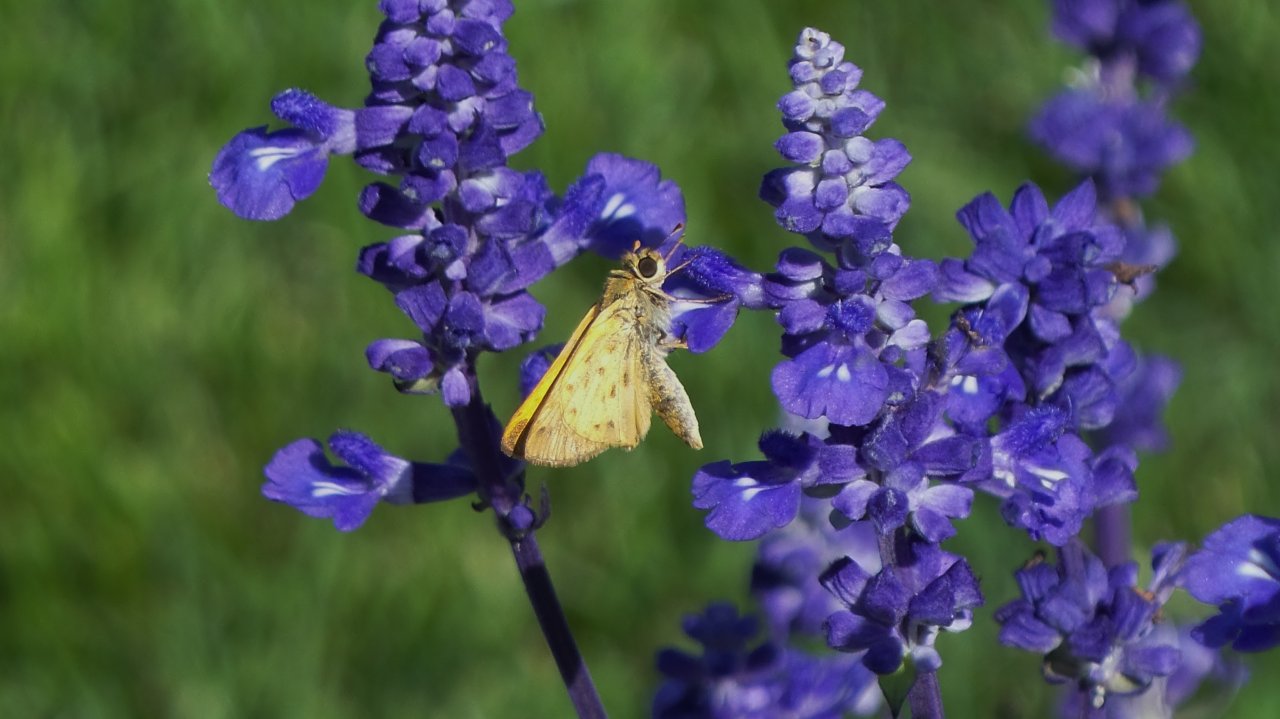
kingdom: Animalia
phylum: Arthropoda
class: Insecta
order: Lepidoptera
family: Hesperiidae
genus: Hylephila
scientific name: Hylephila phyleus
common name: Fiery Skipper
